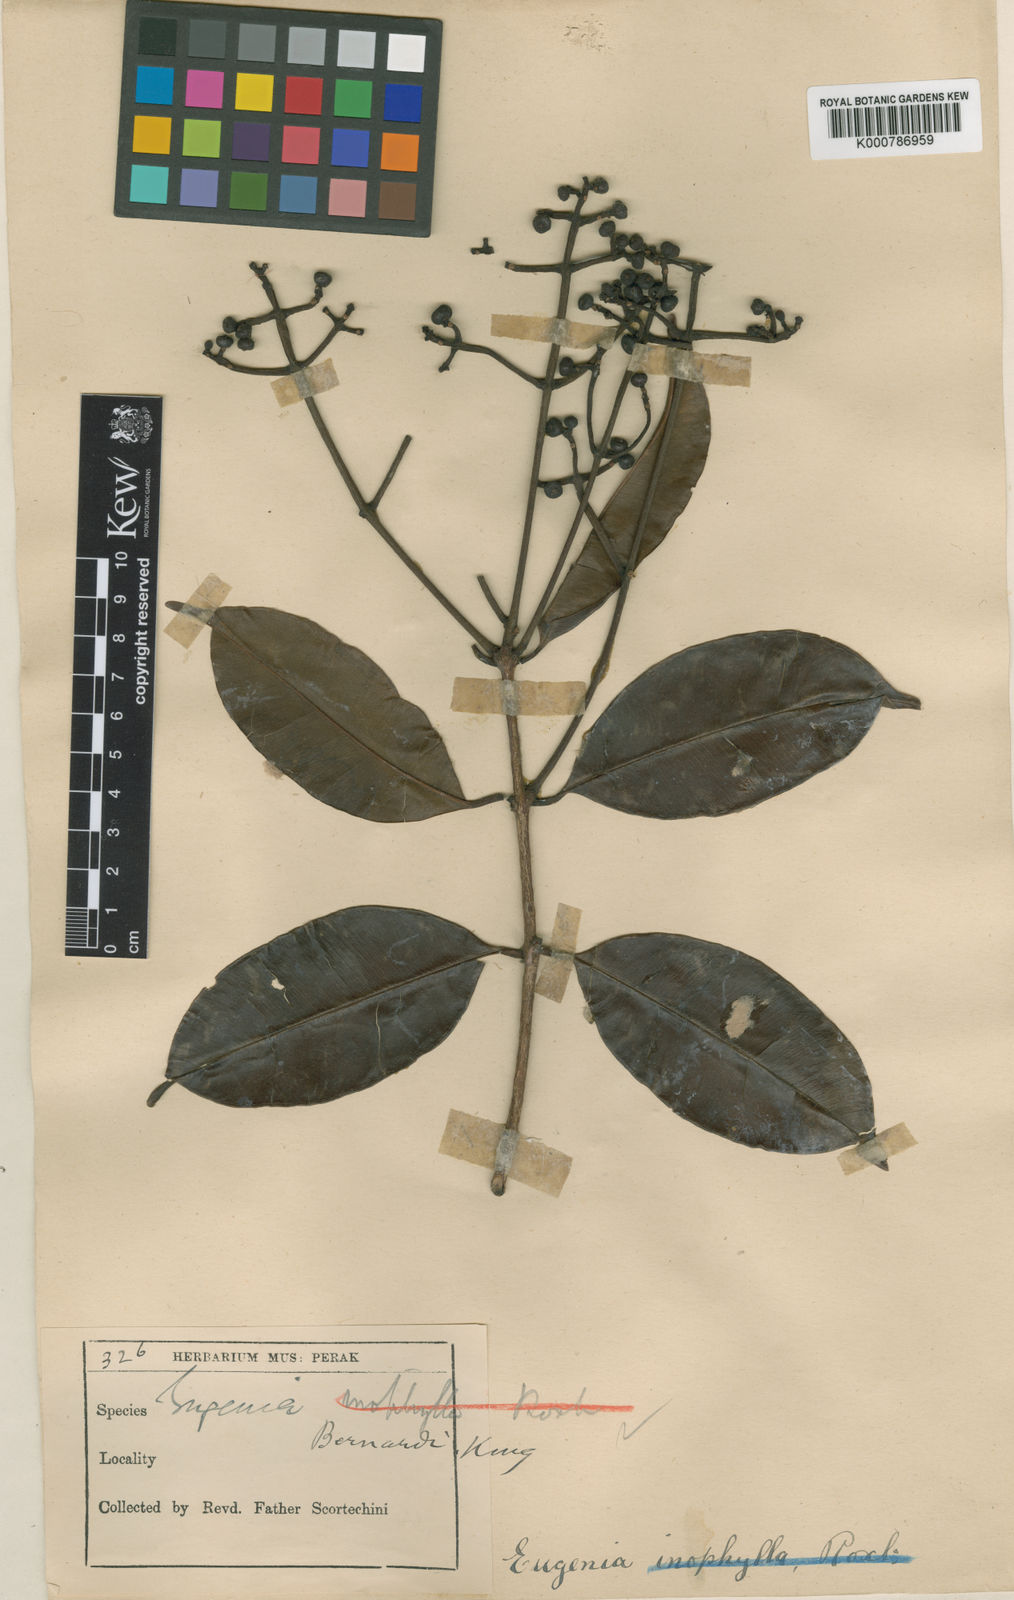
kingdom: Plantae
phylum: Tracheophyta
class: Magnoliopsida
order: Myrtales
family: Myrtaceae
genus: Syzygium
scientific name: Syzygium bernardoi
